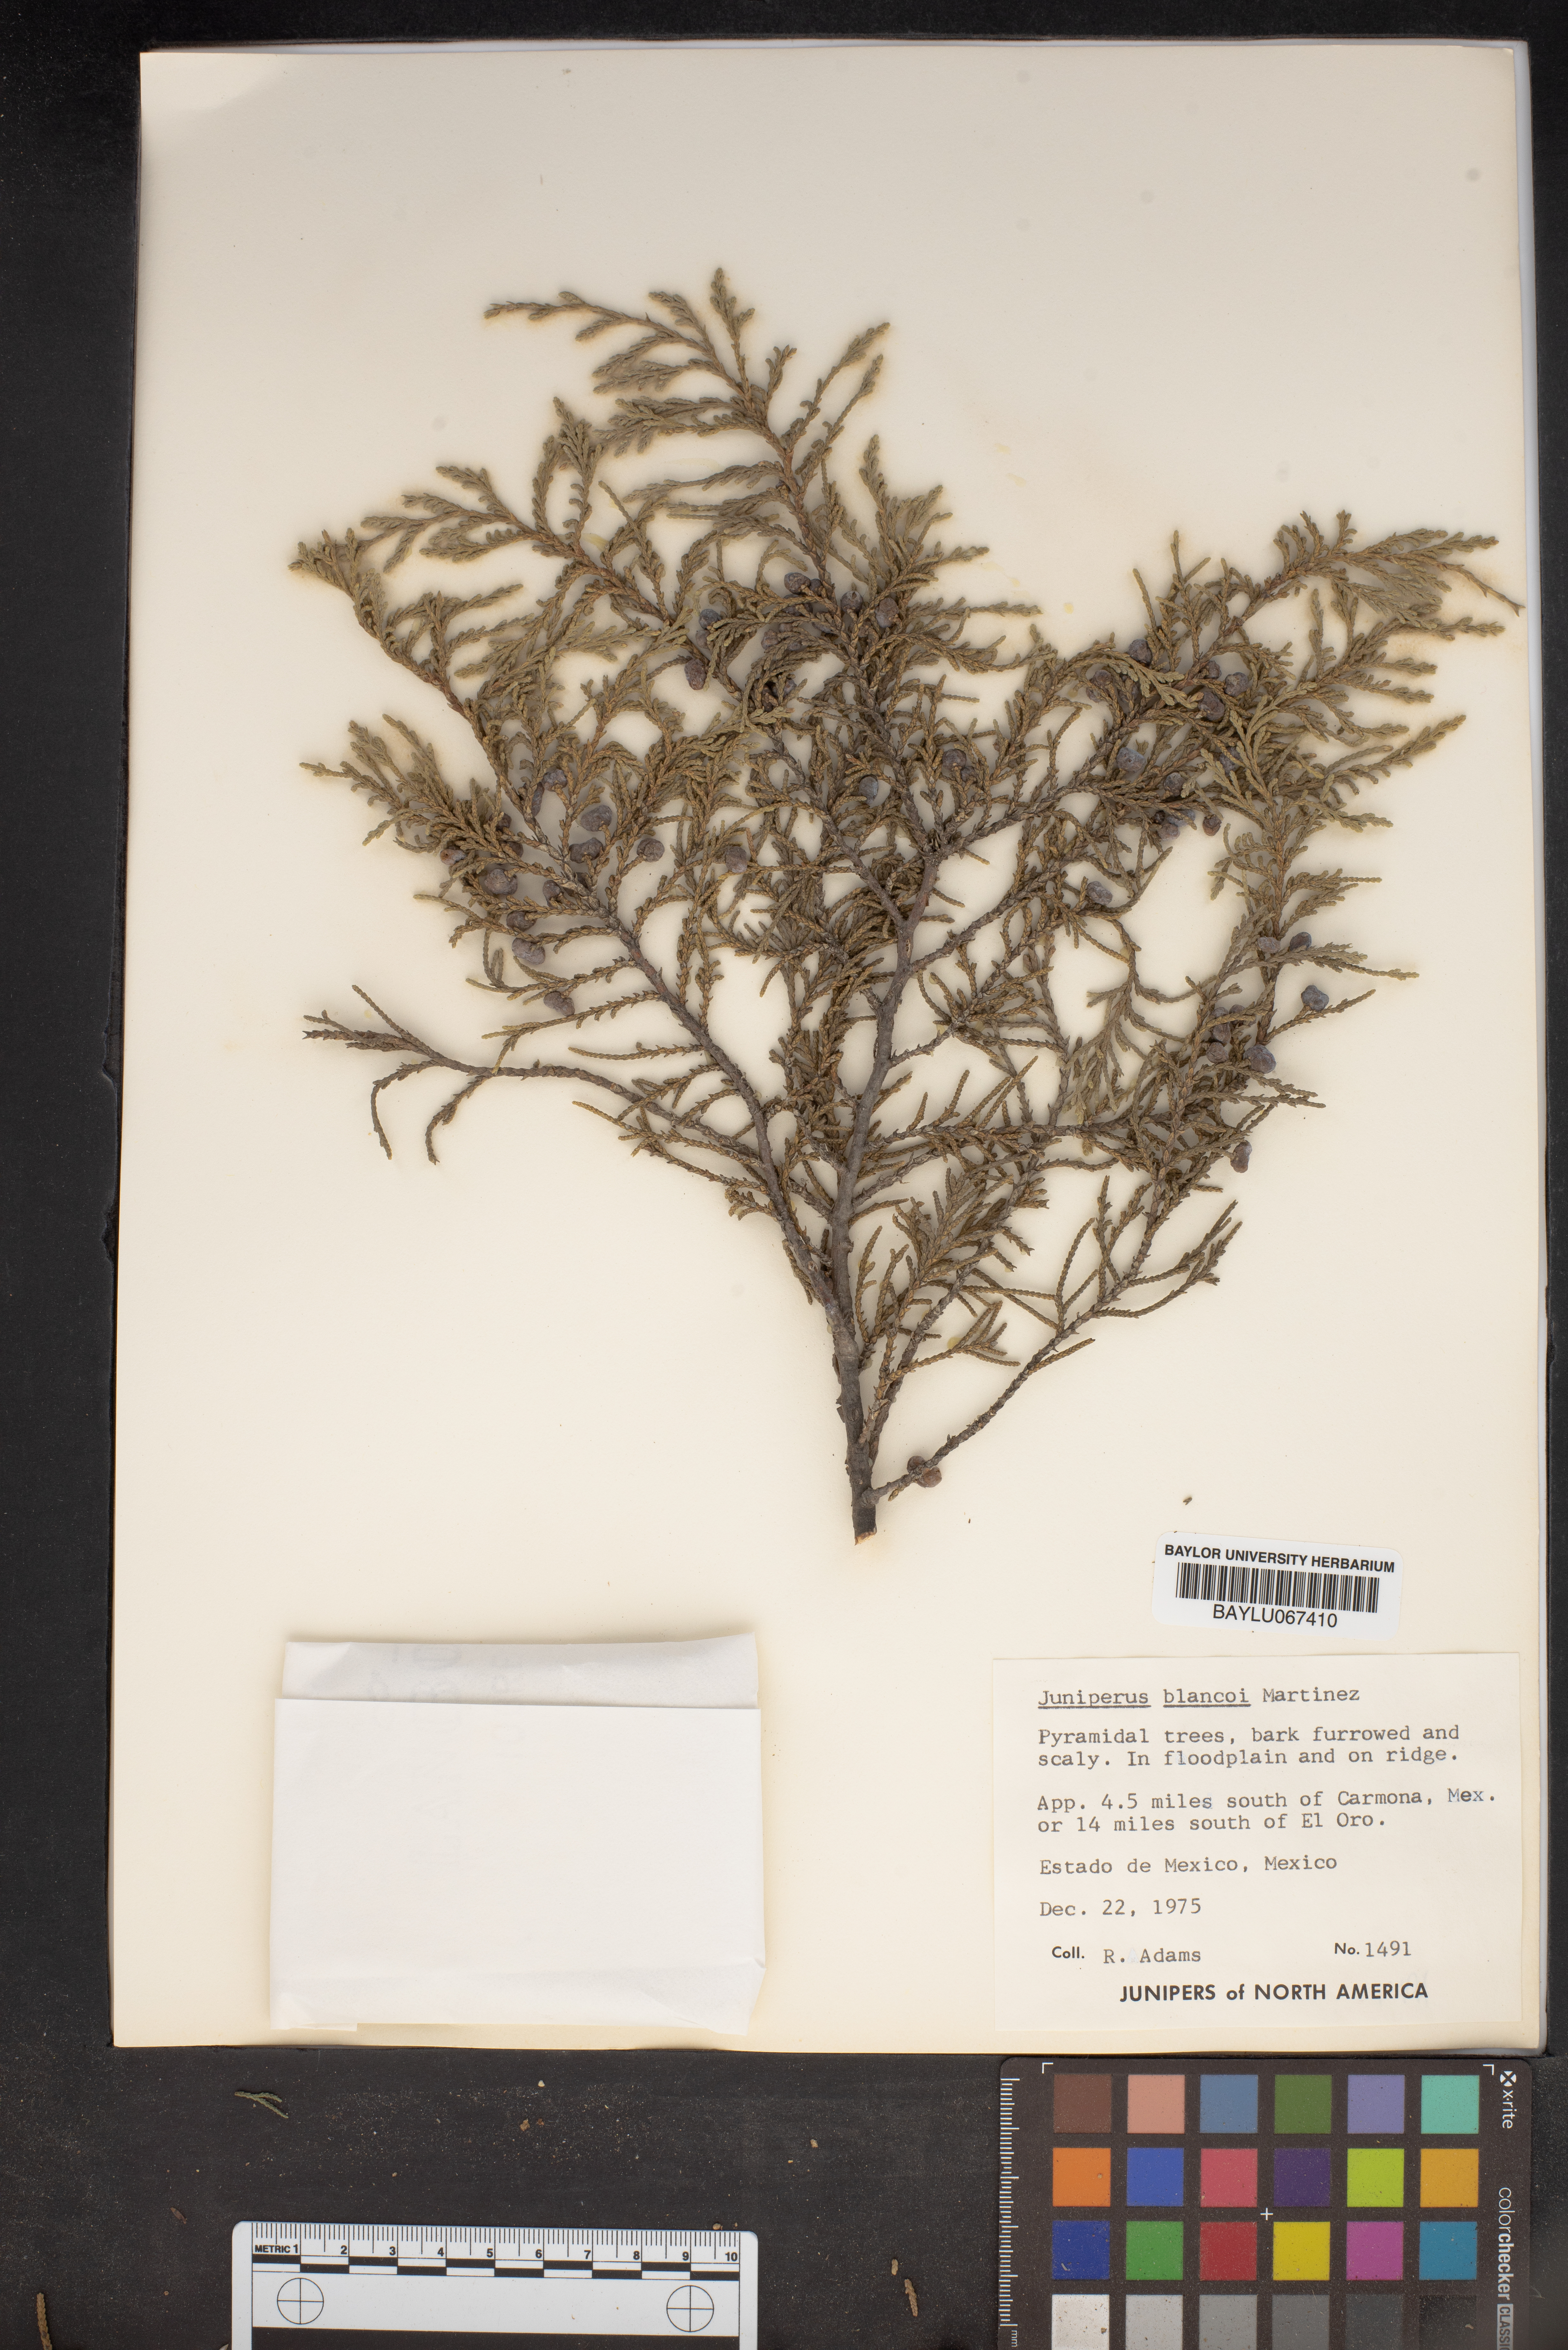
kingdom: Plantae
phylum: Tracheophyta
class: Pinopsida
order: Pinales
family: Cupressaceae
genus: Juniperus
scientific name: Juniperus blancoi
